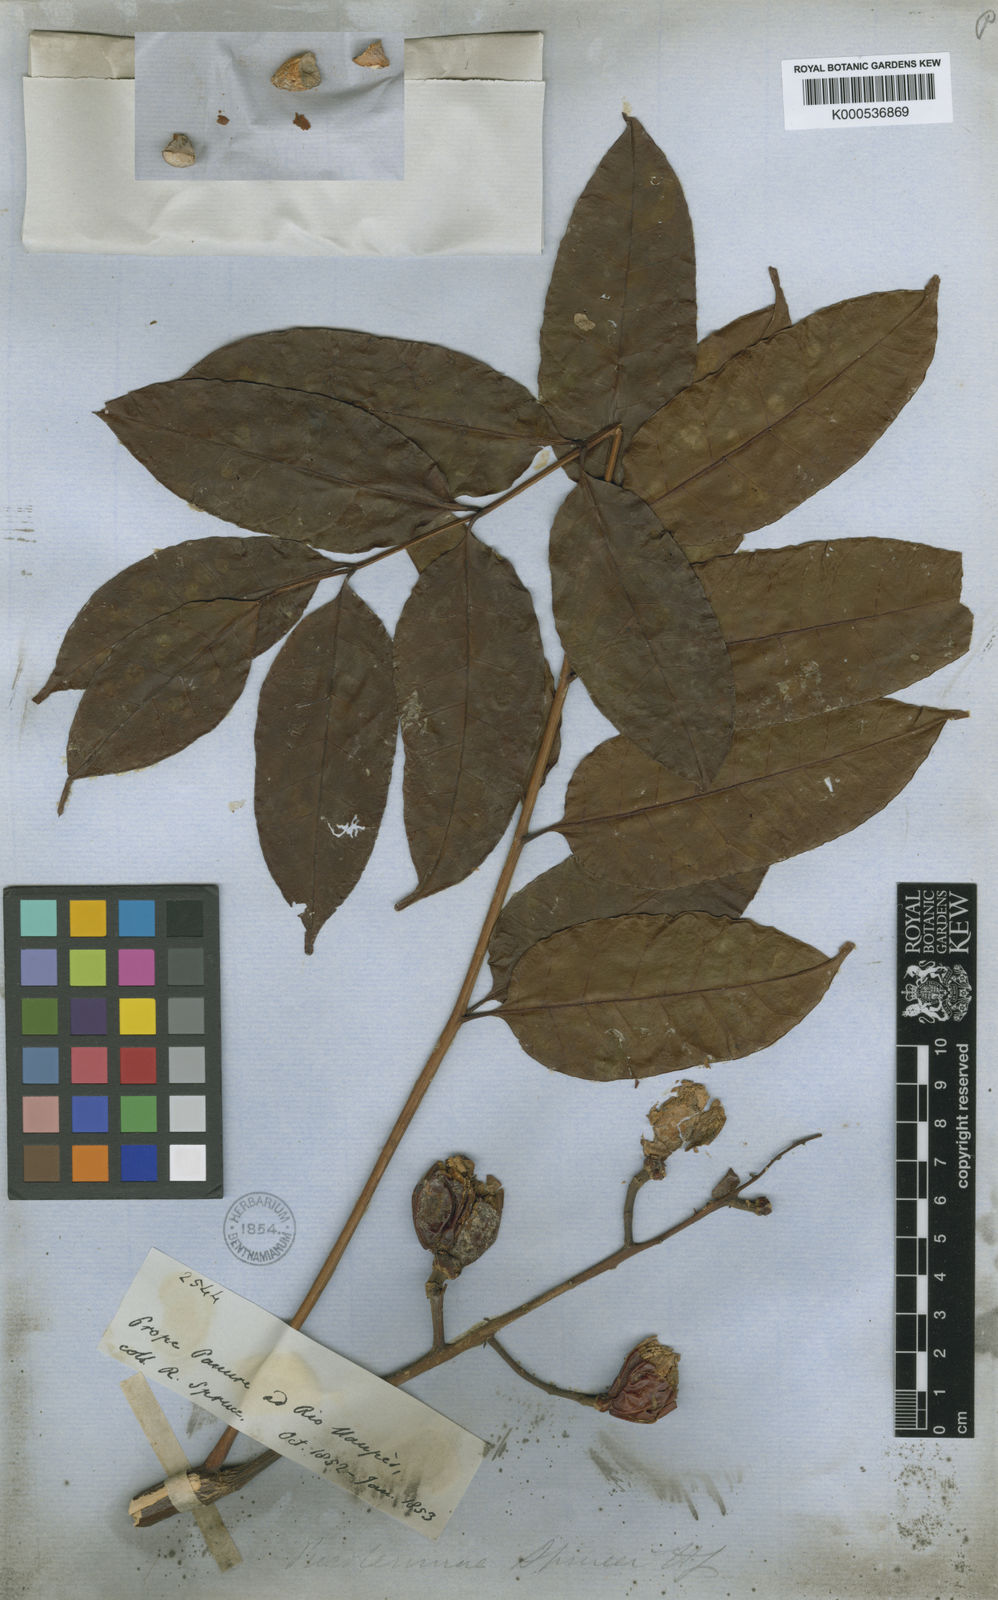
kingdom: Plantae
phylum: Tracheophyta
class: Magnoliopsida
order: Sapindales
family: Simaroubaceae
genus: Picrolemma
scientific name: Picrolemma sprucei
